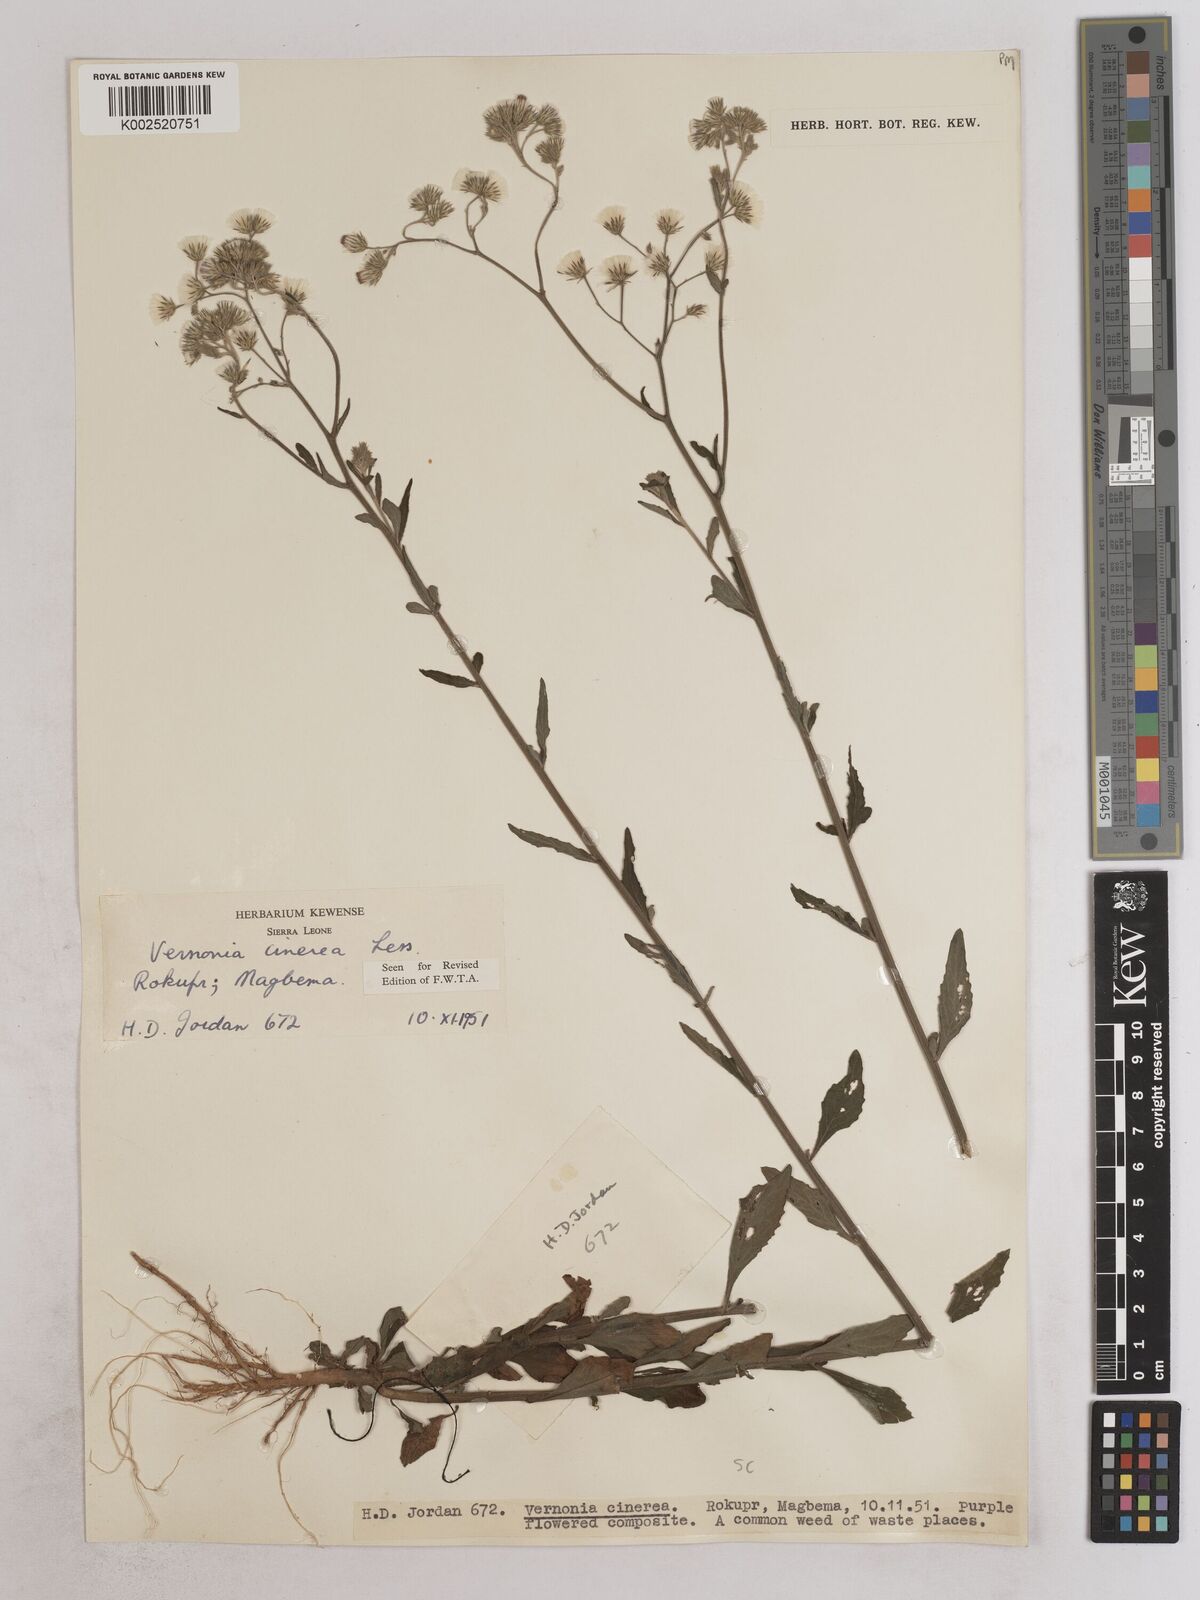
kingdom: Plantae
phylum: Tracheophyta
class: Magnoliopsida
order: Asterales
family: Asteraceae
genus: Cyanthillium
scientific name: Cyanthillium cinereum
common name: Little ironweed
